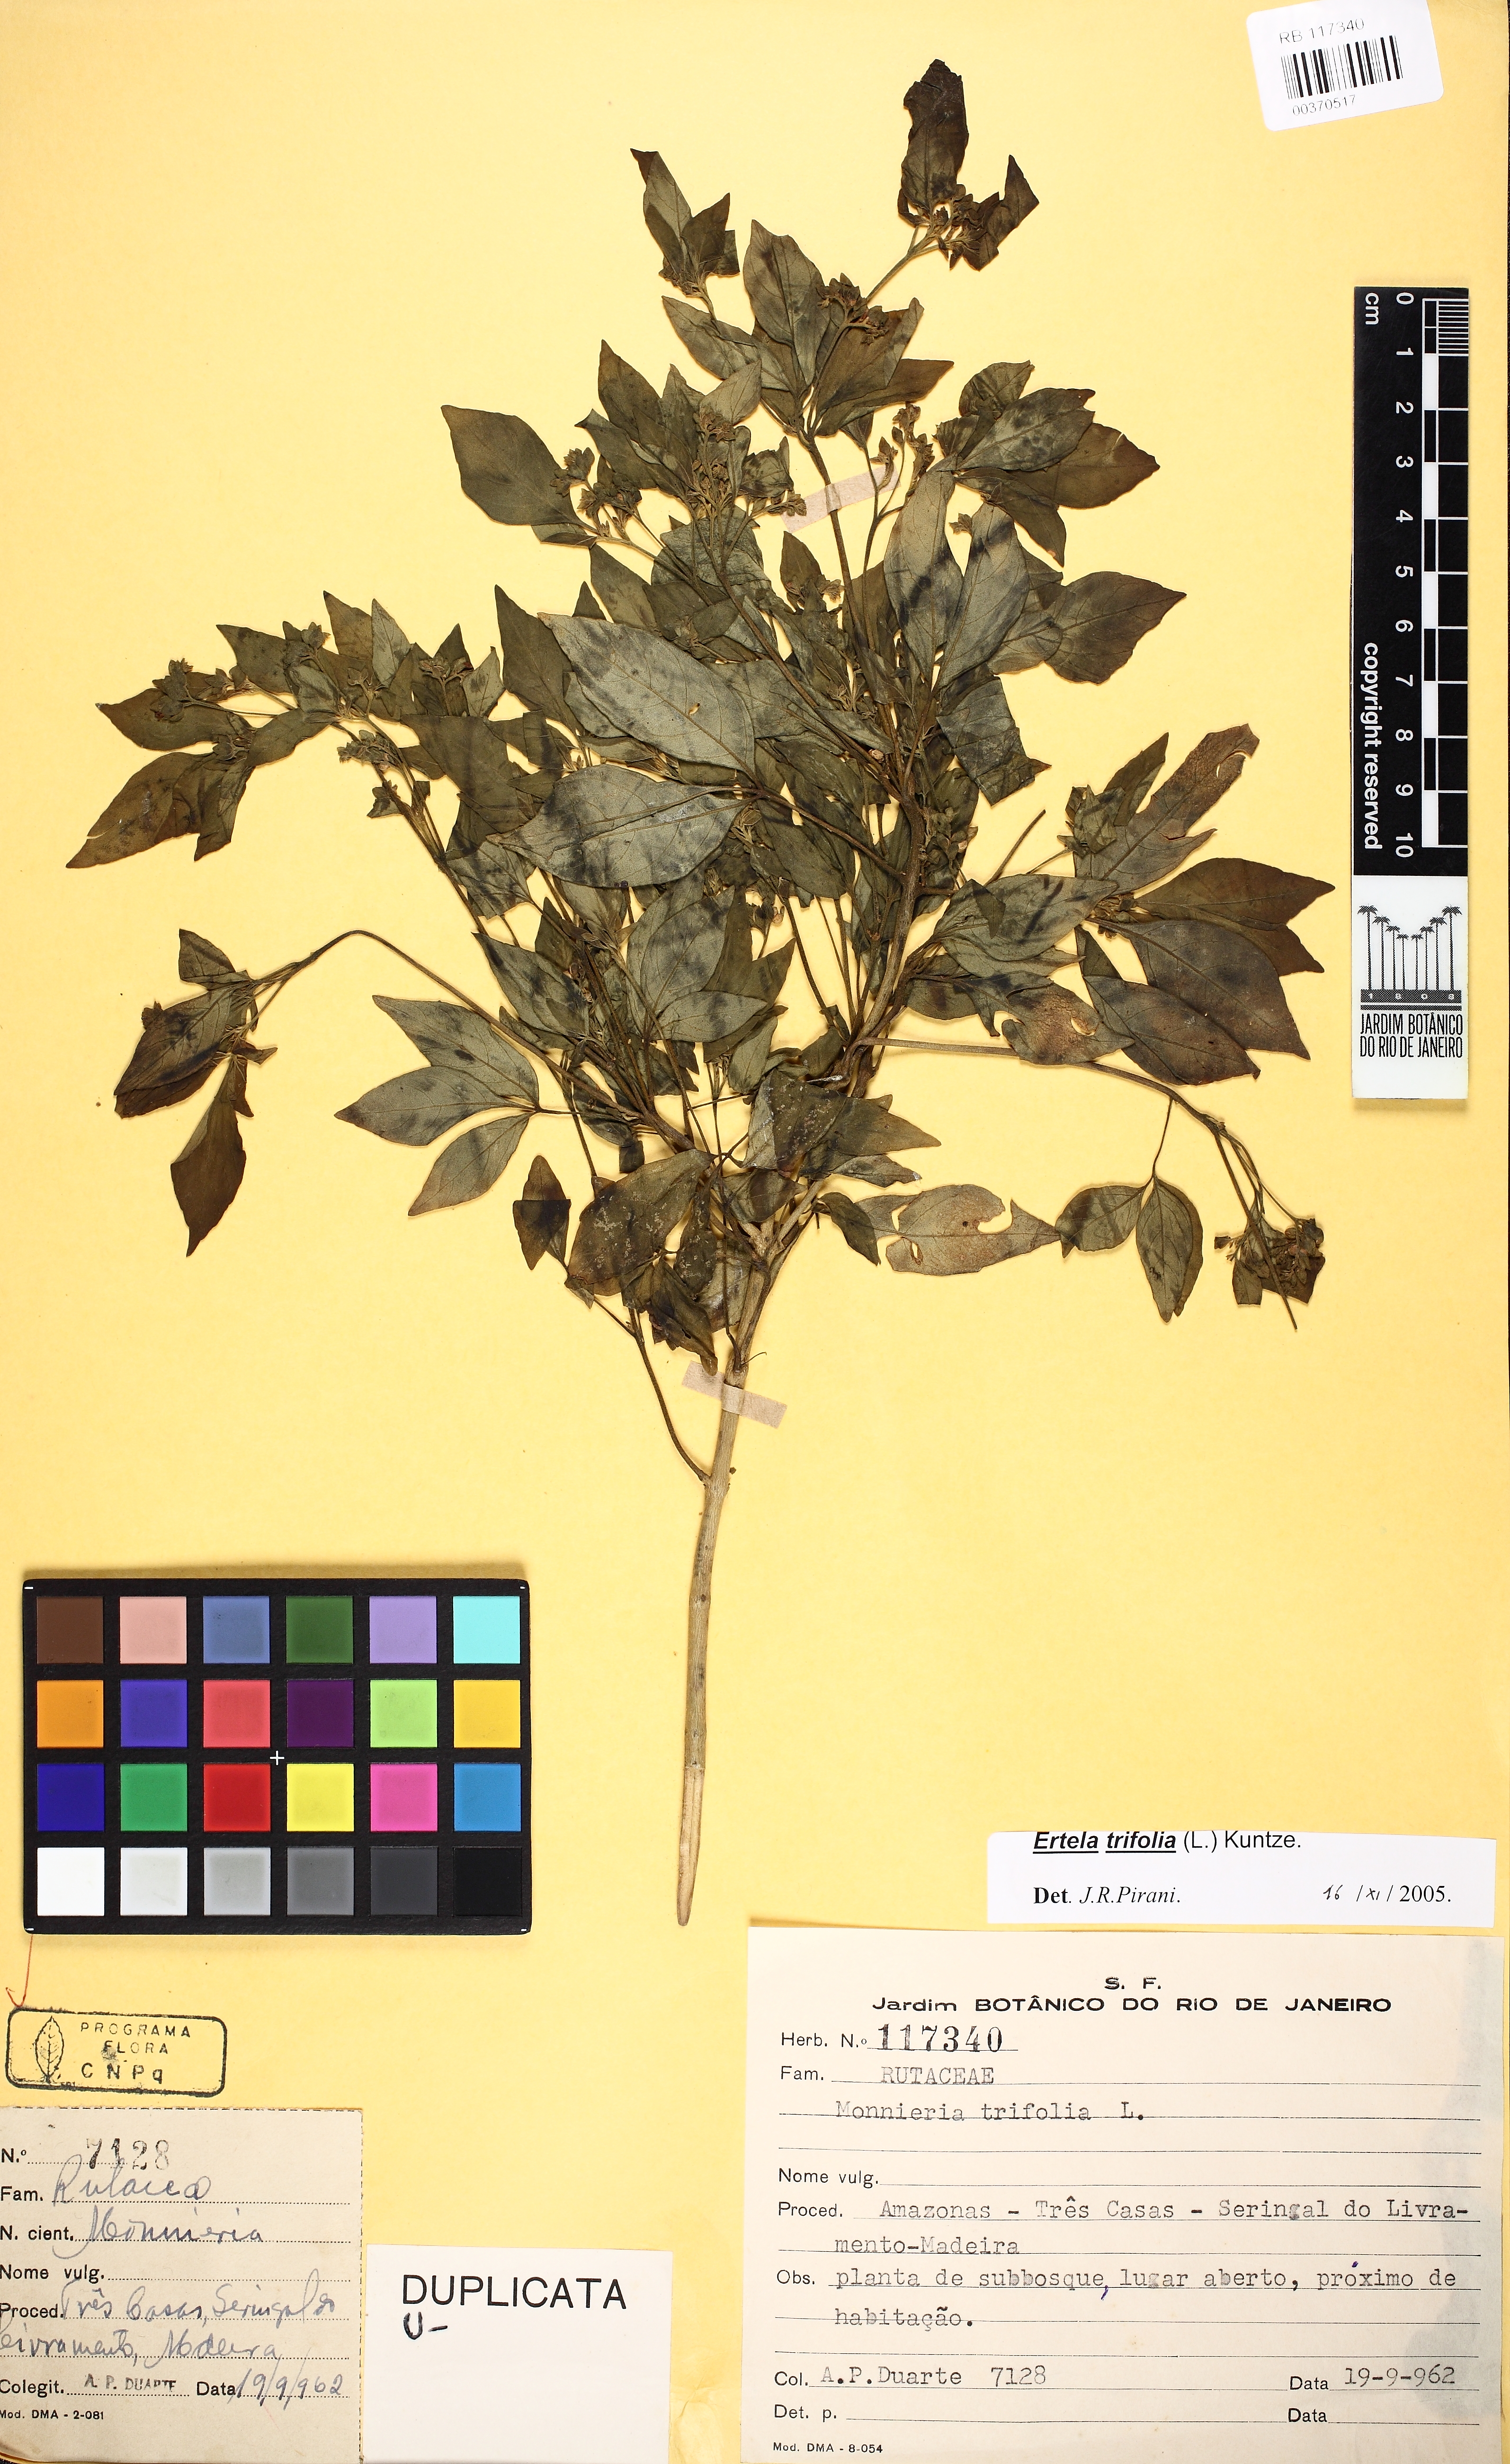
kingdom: Plantae
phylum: Tracheophyta
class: Magnoliopsida
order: Sapindales
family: Rutaceae
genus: Ertela
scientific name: Ertela trifolia
